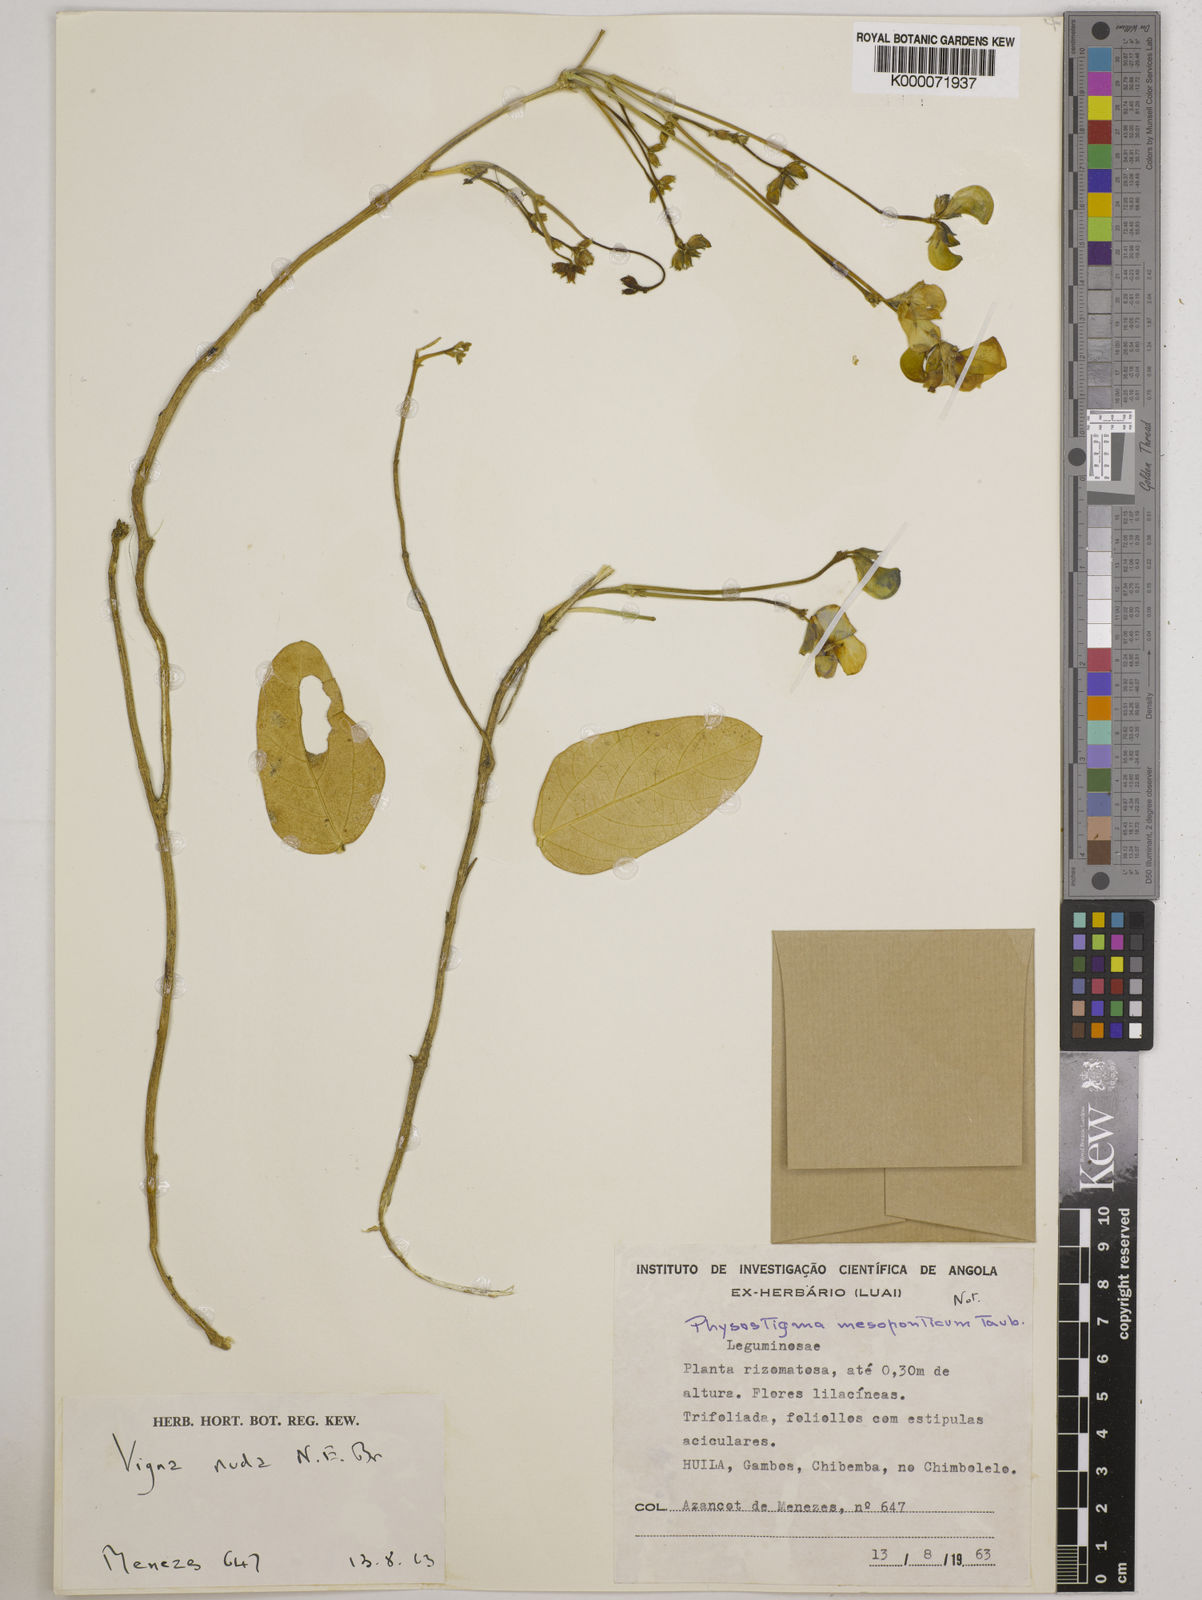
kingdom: Plantae
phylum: Tracheophyta
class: Magnoliopsida
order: Fabales
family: Fabaceae
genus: Vigna
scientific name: Vigna antunesii
